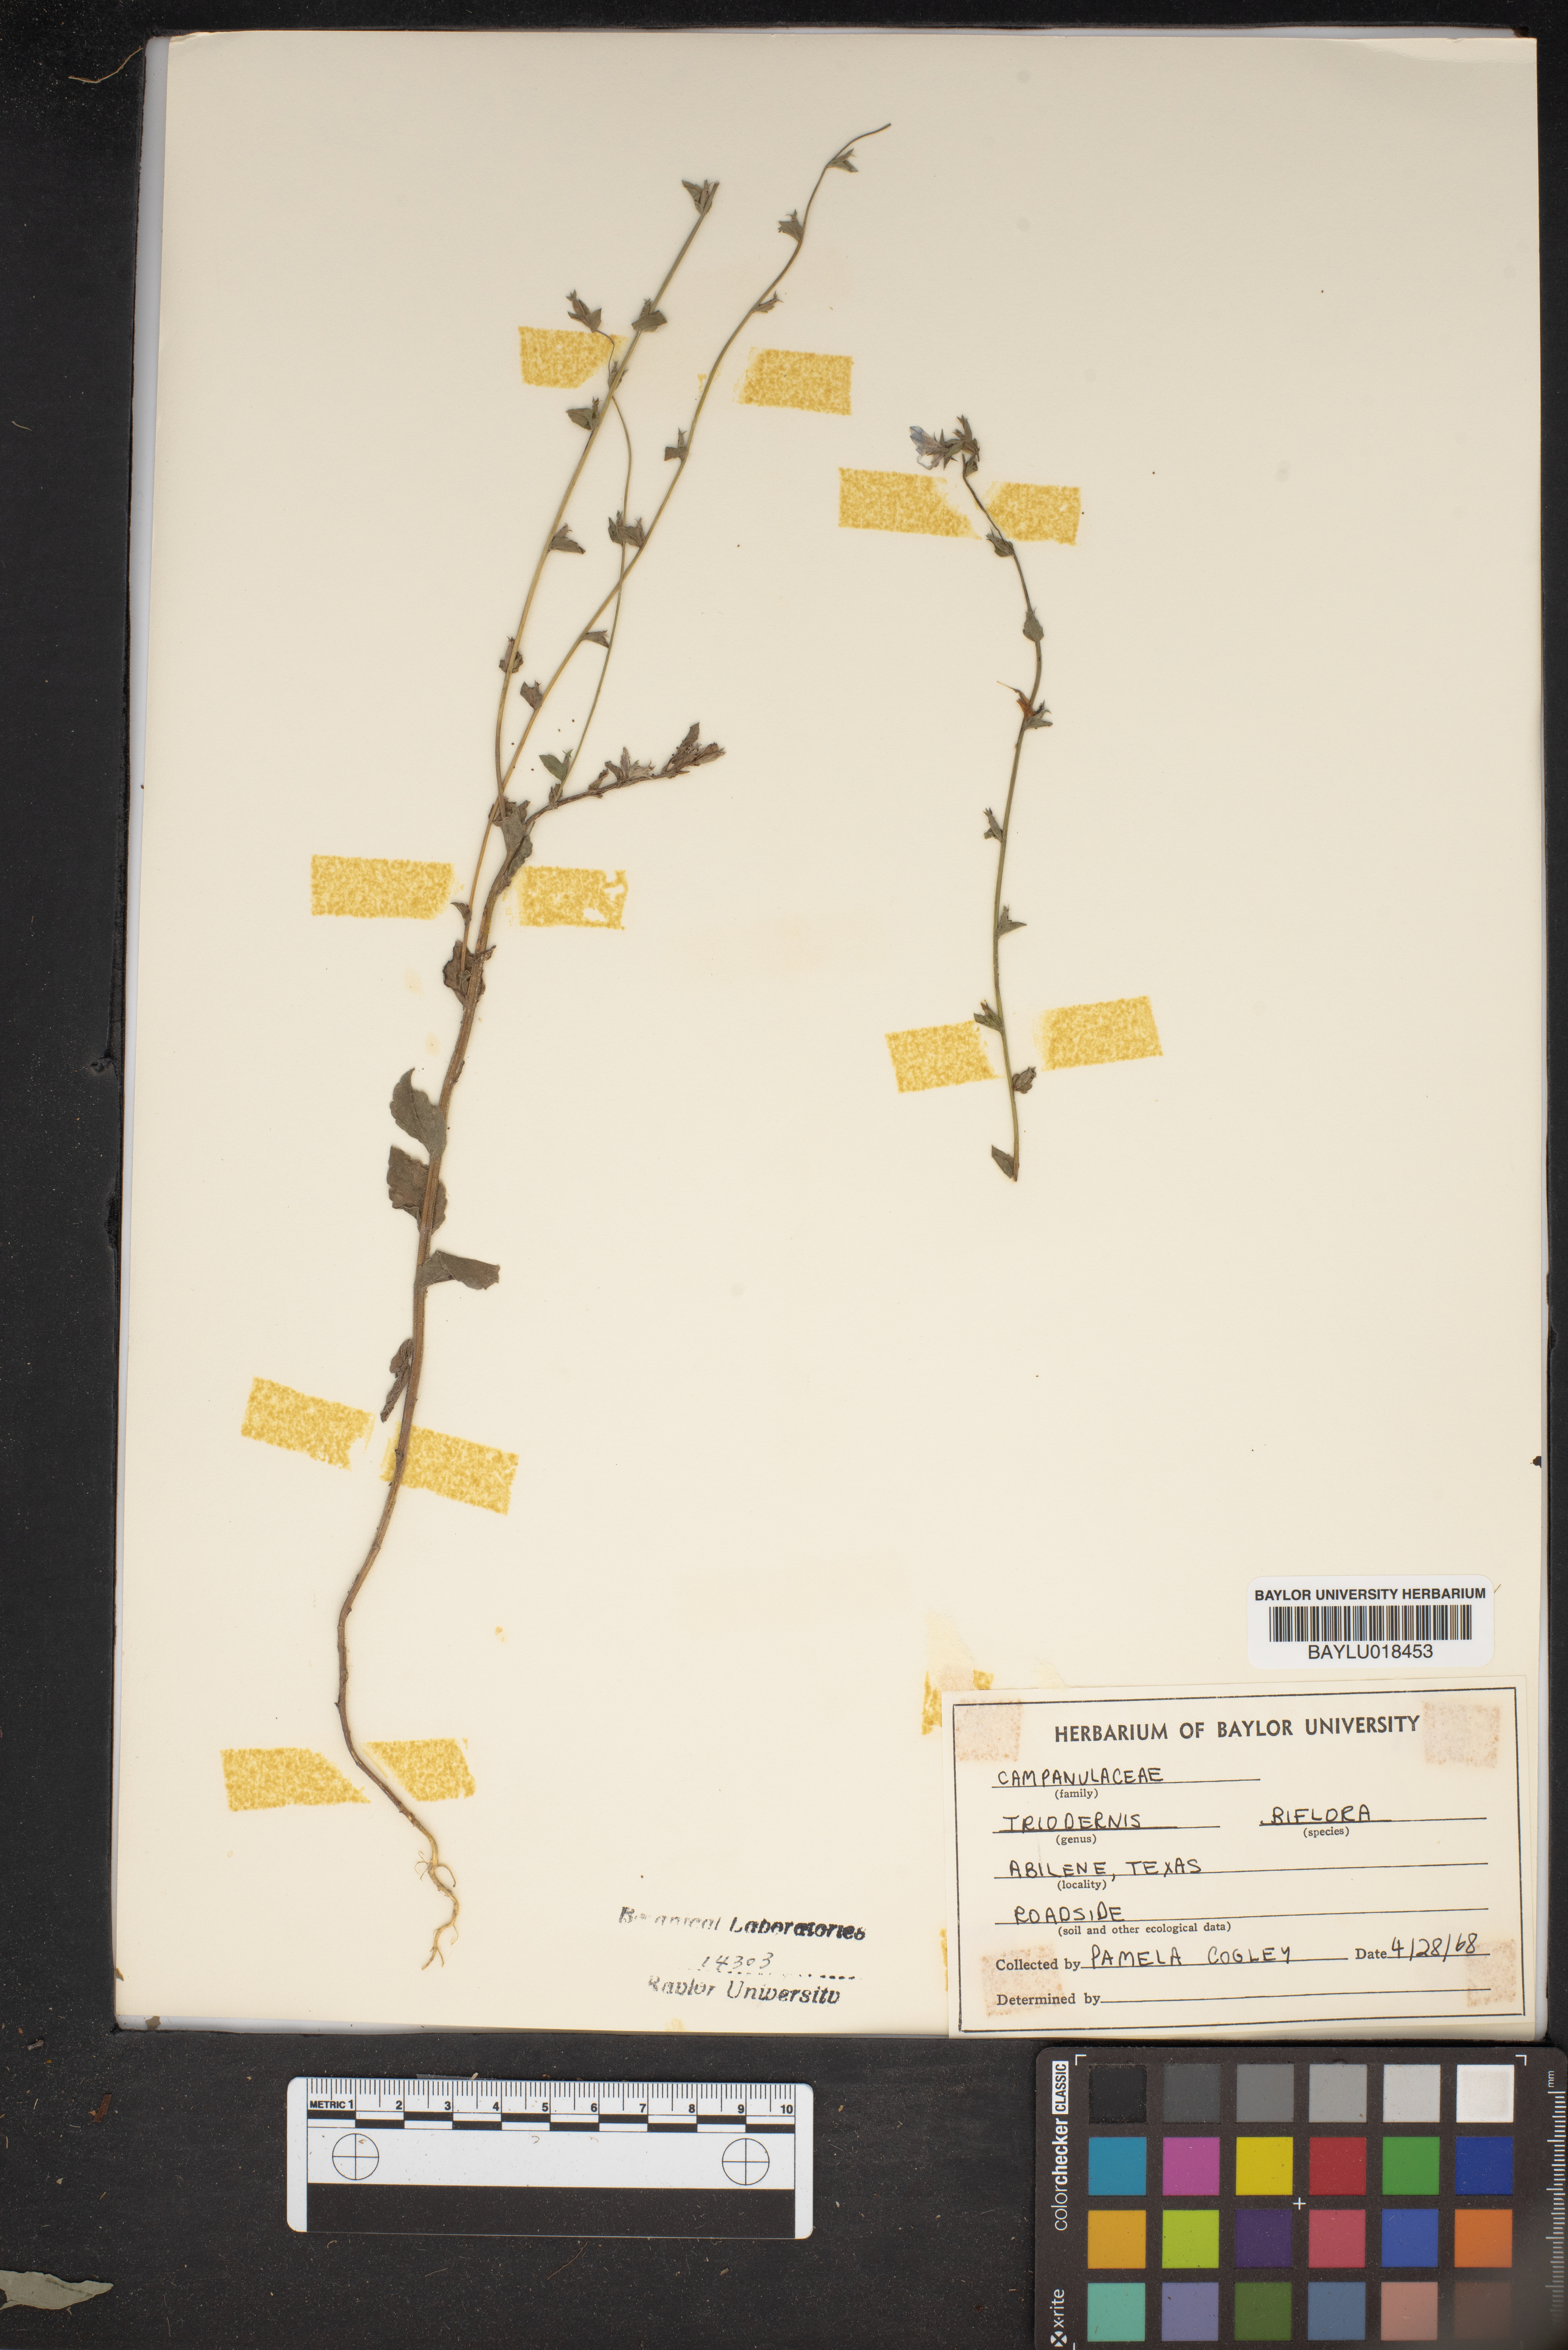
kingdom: Plantae
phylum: Tracheophyta
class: Magnoliopsida
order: Asterales
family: Campanulaceae
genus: Triodanis
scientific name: Triodanis perfoliata
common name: Clasping venus' looking-glass
